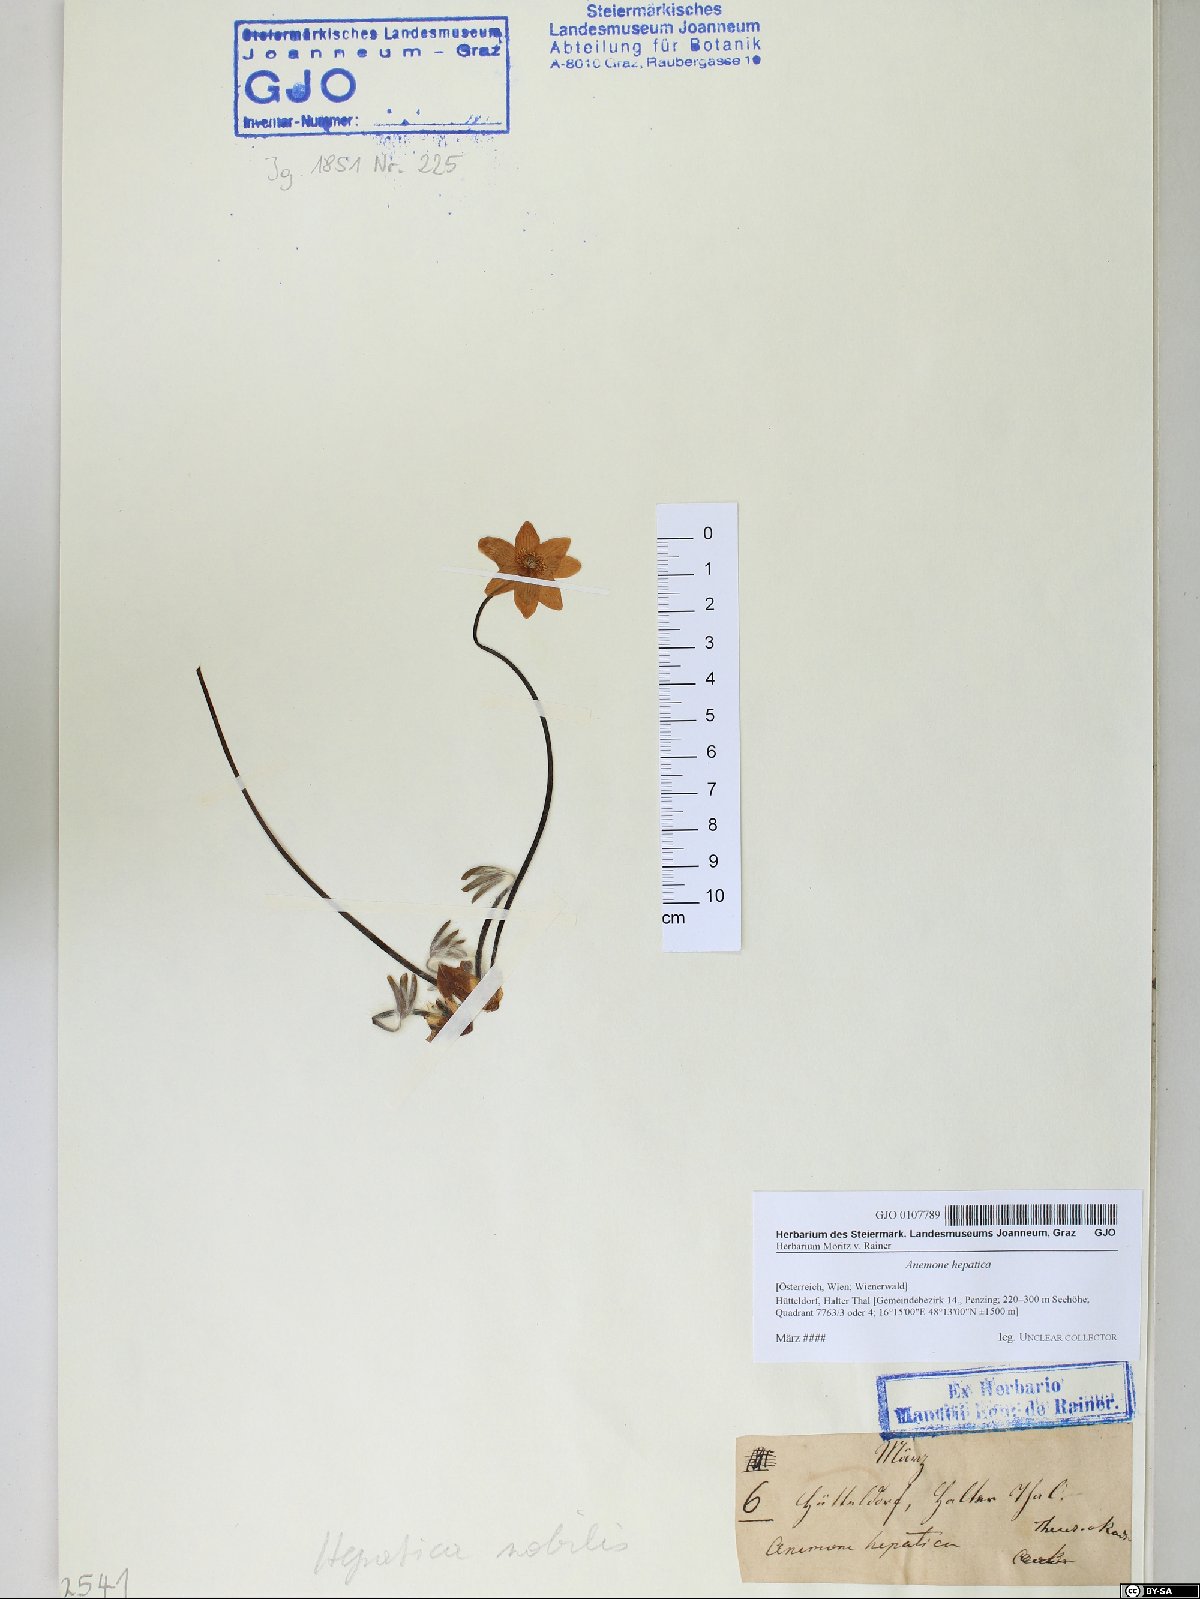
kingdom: Plantae
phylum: Tracheophyta
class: Magnoliopsida
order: Ranunculales
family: Ranunculaceae
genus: Hepatica
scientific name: Hepatica nobilis
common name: Liverleaf
